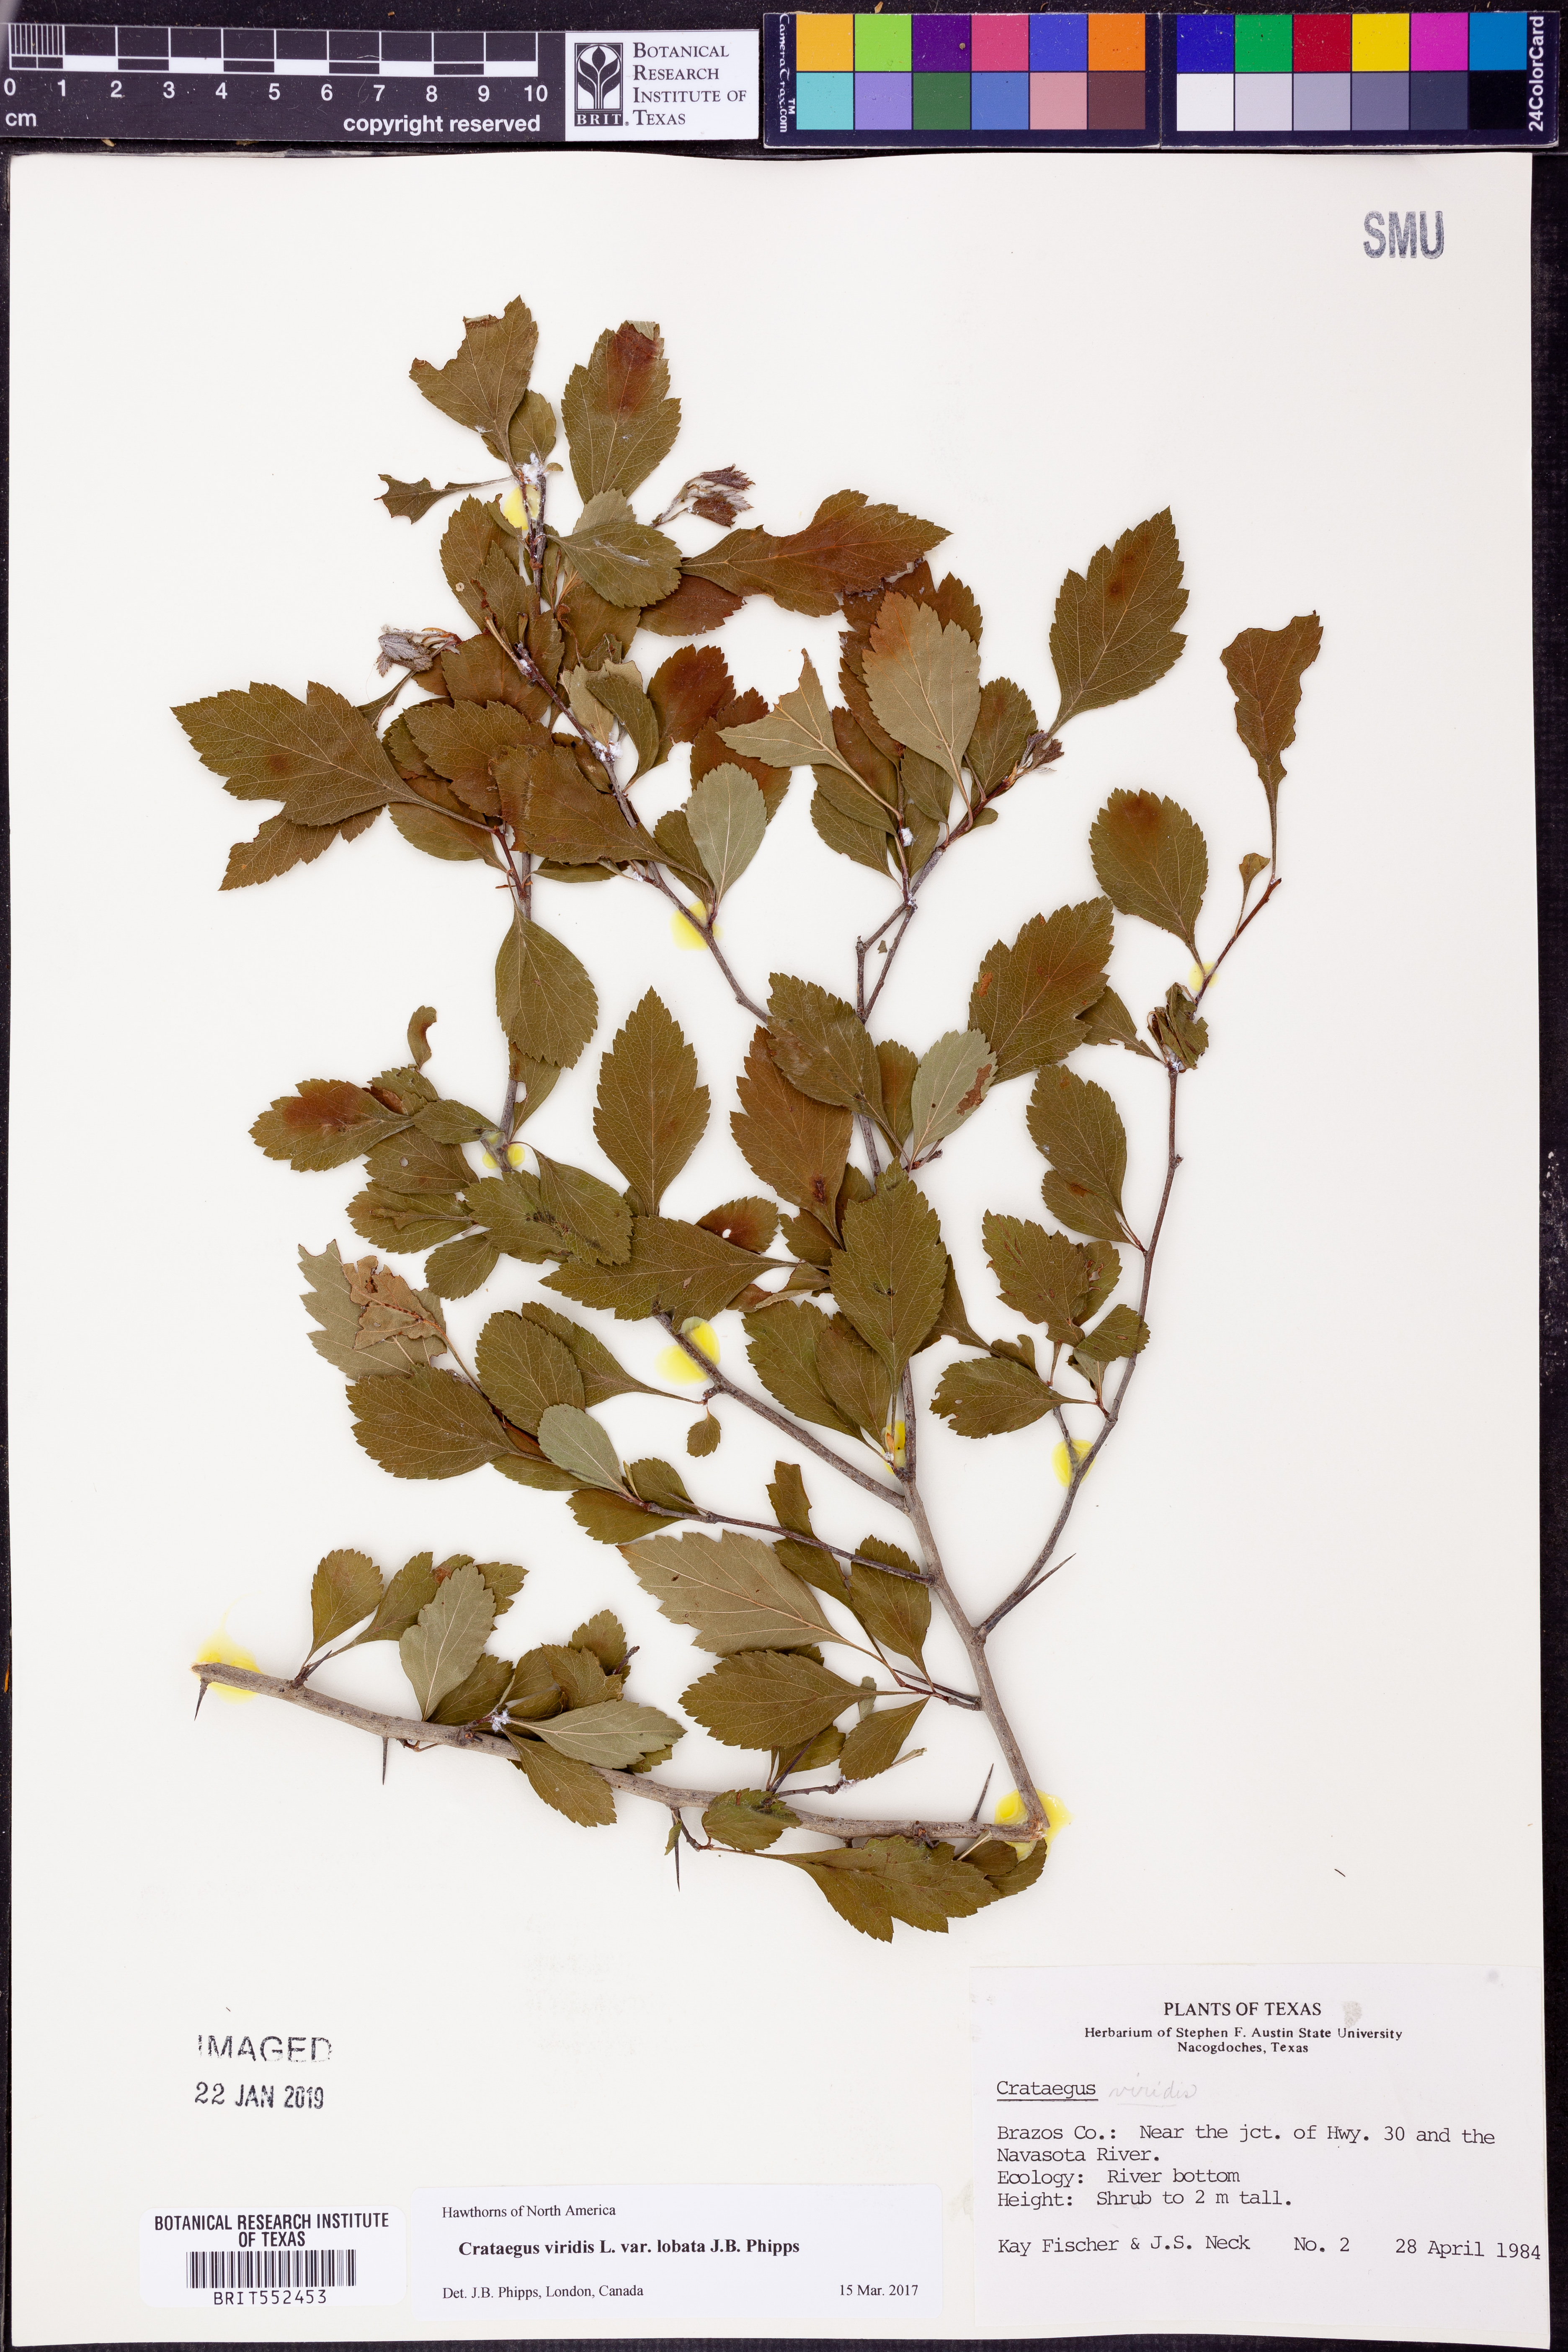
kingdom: Plantae
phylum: Tracheophyta
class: Magnoliopsida
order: Rosales
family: Rosaceae
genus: Crataegus
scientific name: Crataegus viridis
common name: Southernthorn
